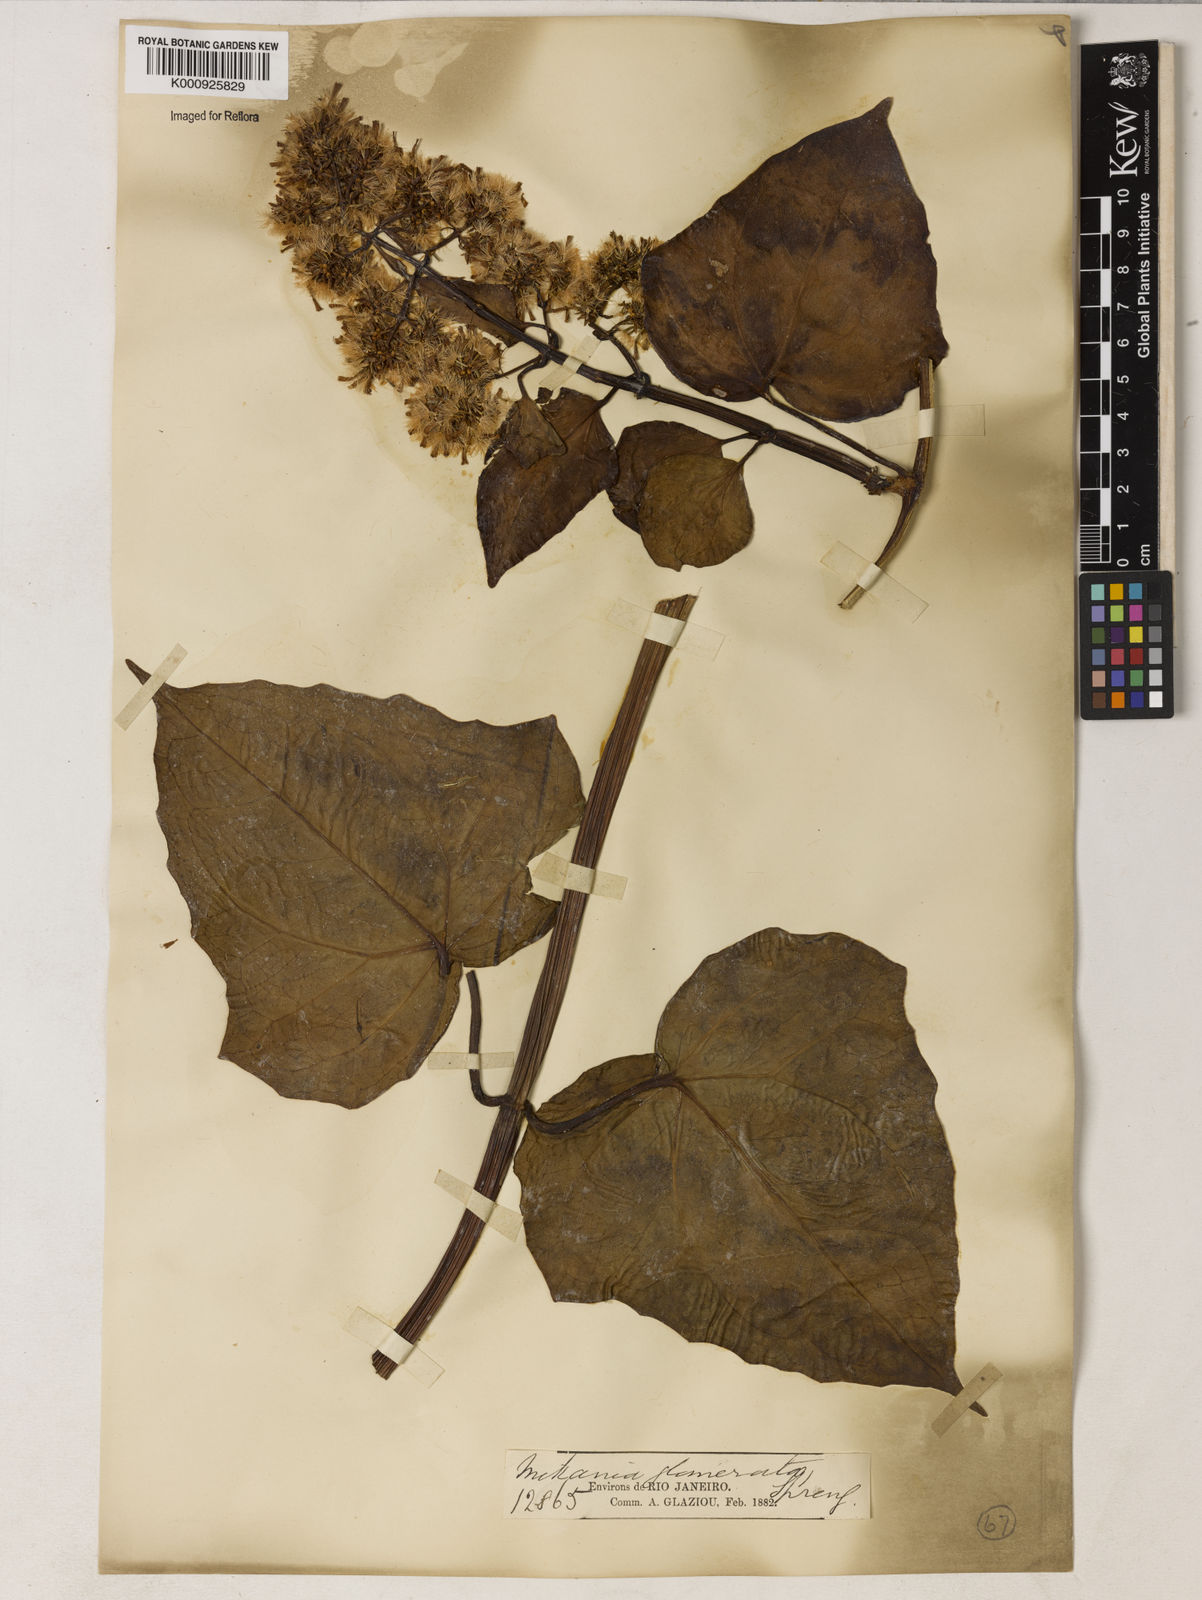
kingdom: Plantae
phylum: Tracheophyta
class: Magnoliopsida
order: Asterales
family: Asteraceae
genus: Mikania
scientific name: Mikania glomerata
